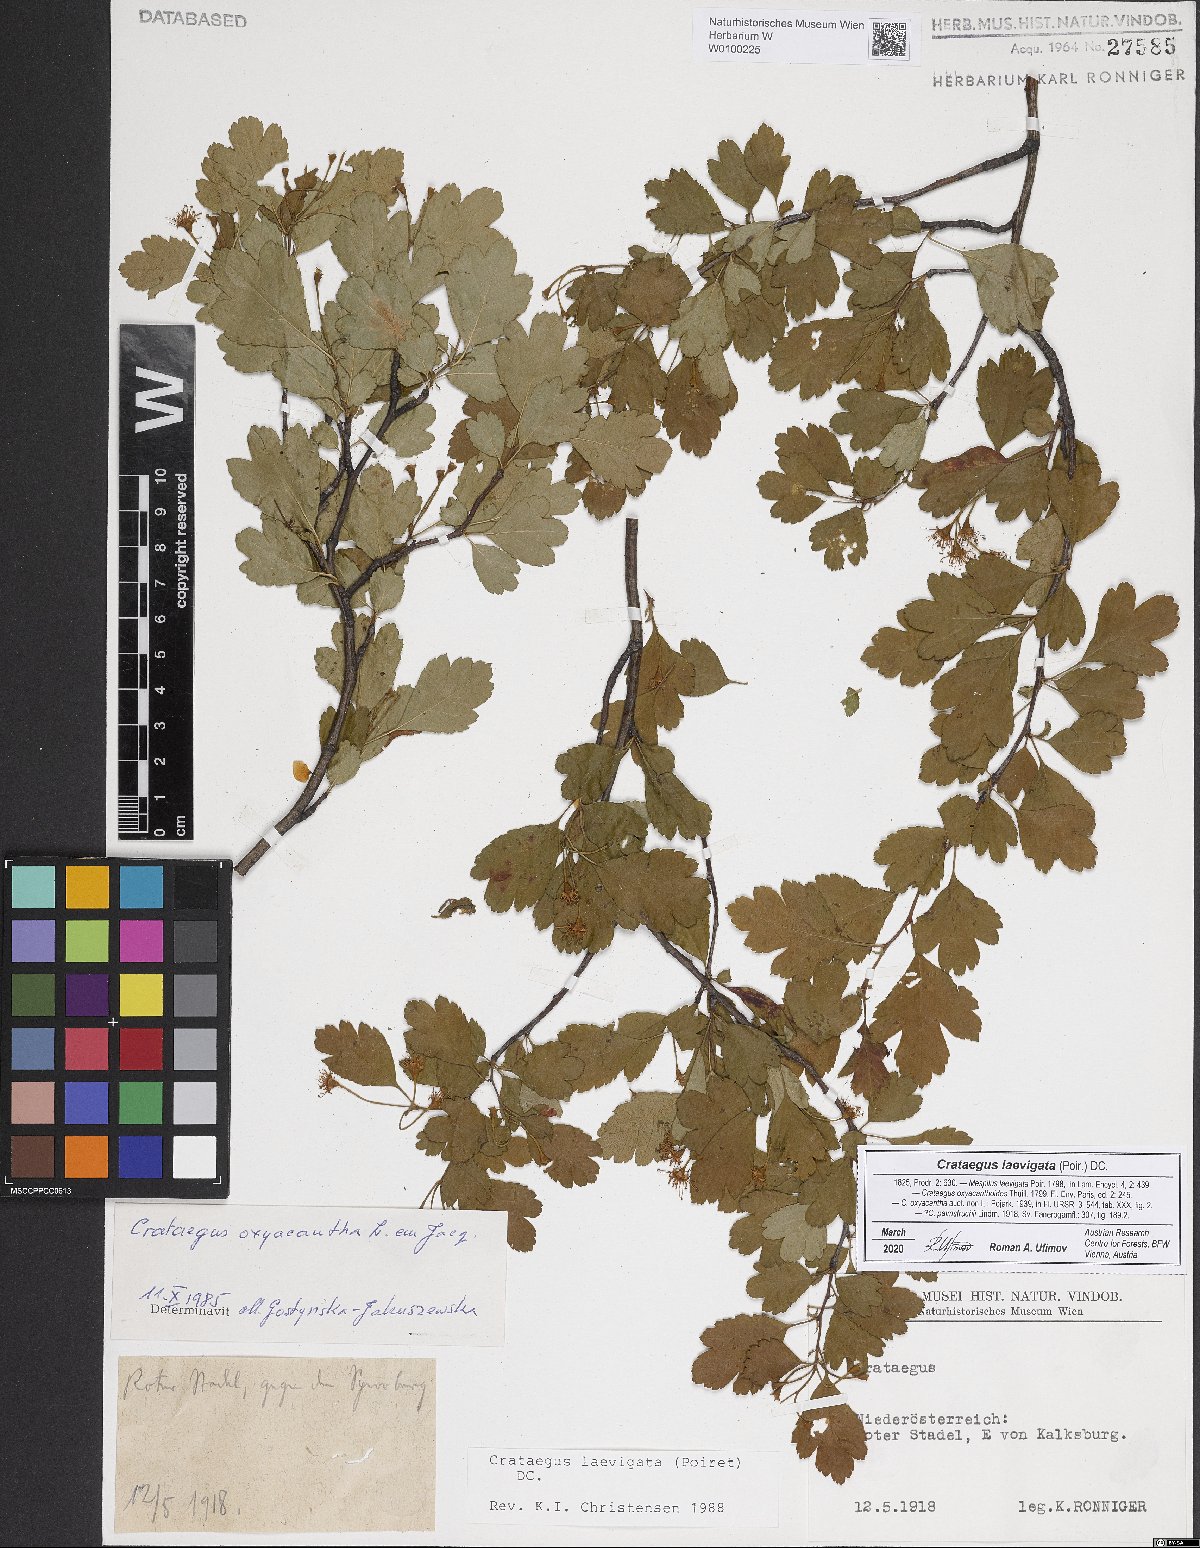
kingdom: Plantae
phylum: Tracheophyta
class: Magnoliopsida
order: Rosales
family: Rosaceae
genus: Crataegus
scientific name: Crataegus laevigata
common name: Midland hawthorn
